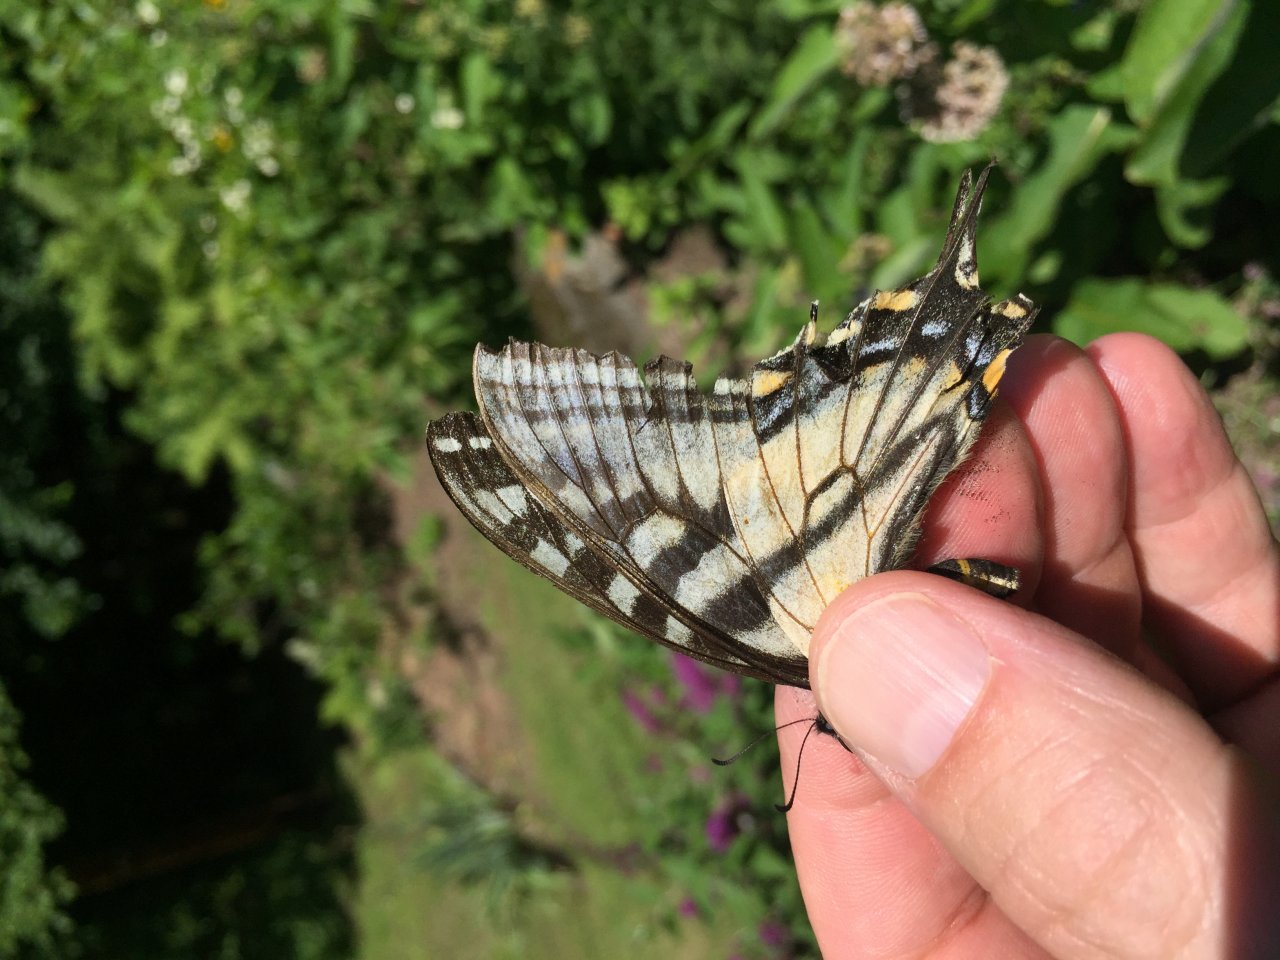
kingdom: Animalia
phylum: Arthropoda
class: Insecta
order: Lepidoptera
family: Papilionidae
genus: Pterourus
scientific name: Pterourus canadensis
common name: Canadian Tiger Swallowtail
